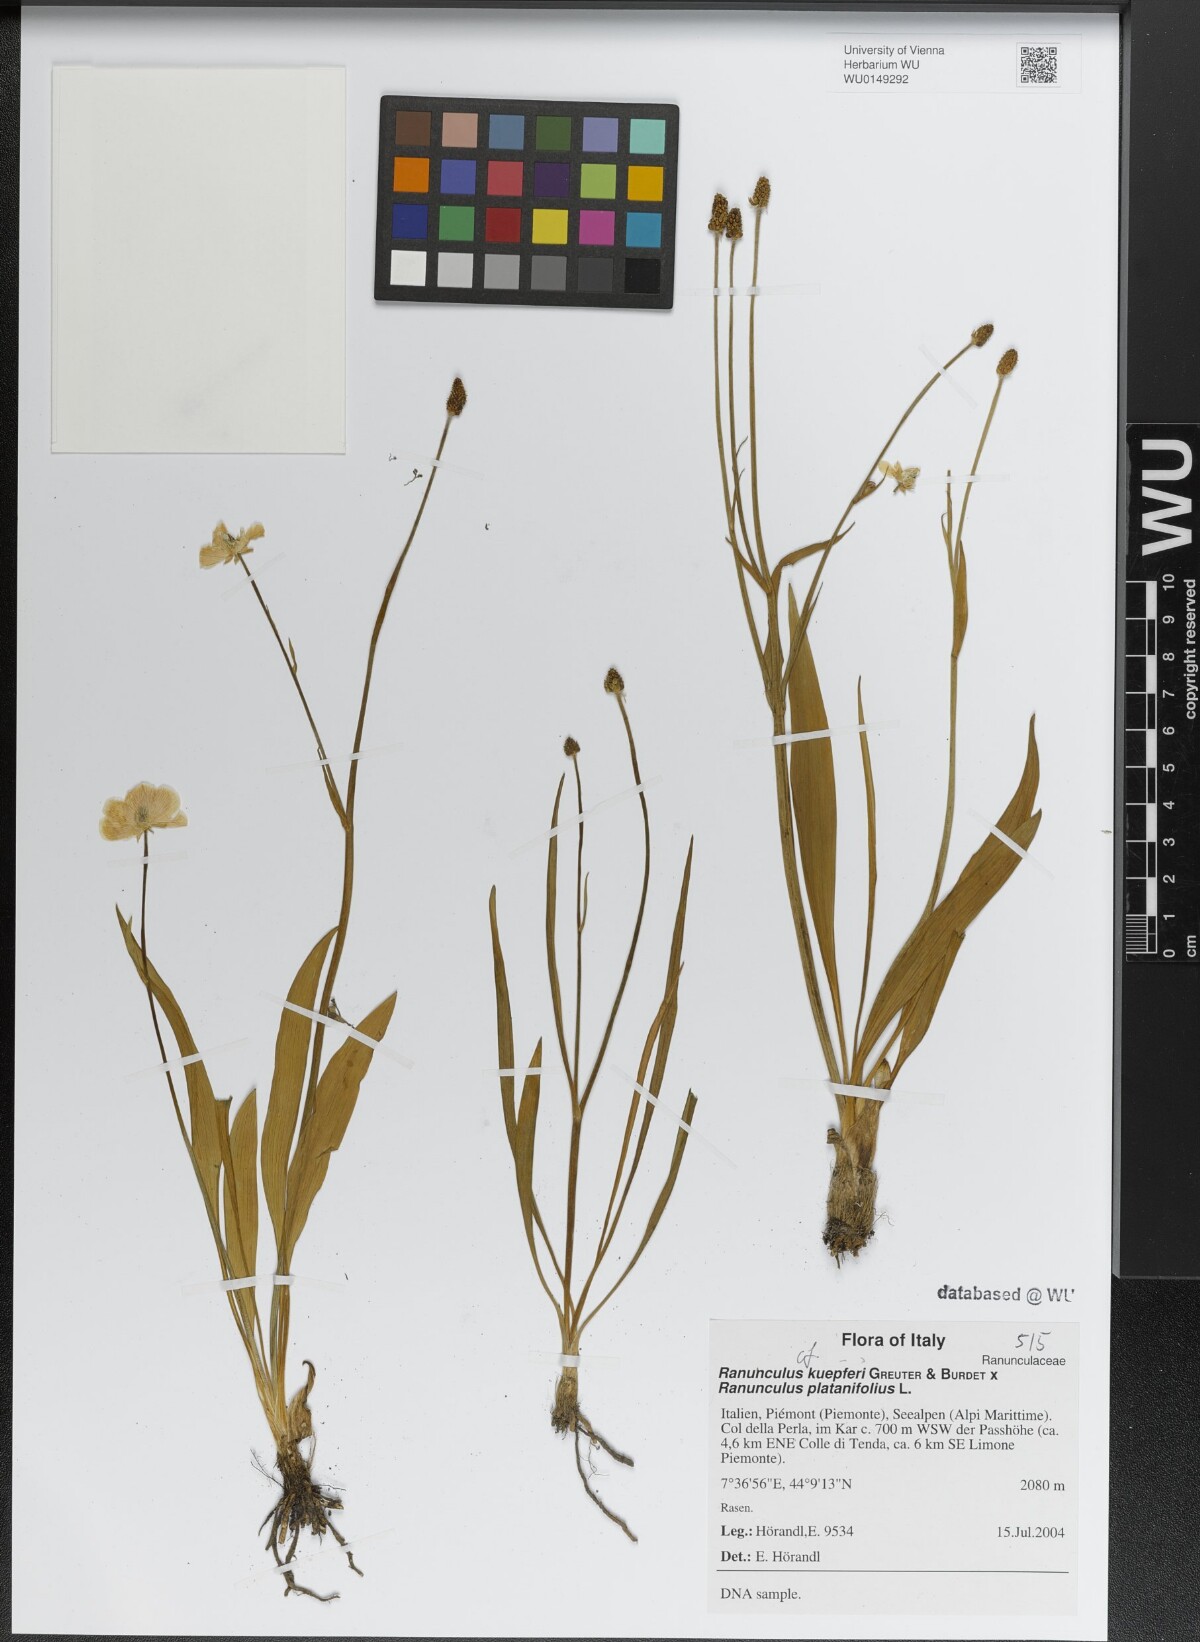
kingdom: Plantae
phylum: Tracheophyta
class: Magnoliopsida
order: Ranunculales
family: Ranunculaceae
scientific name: Ranunculaceae
